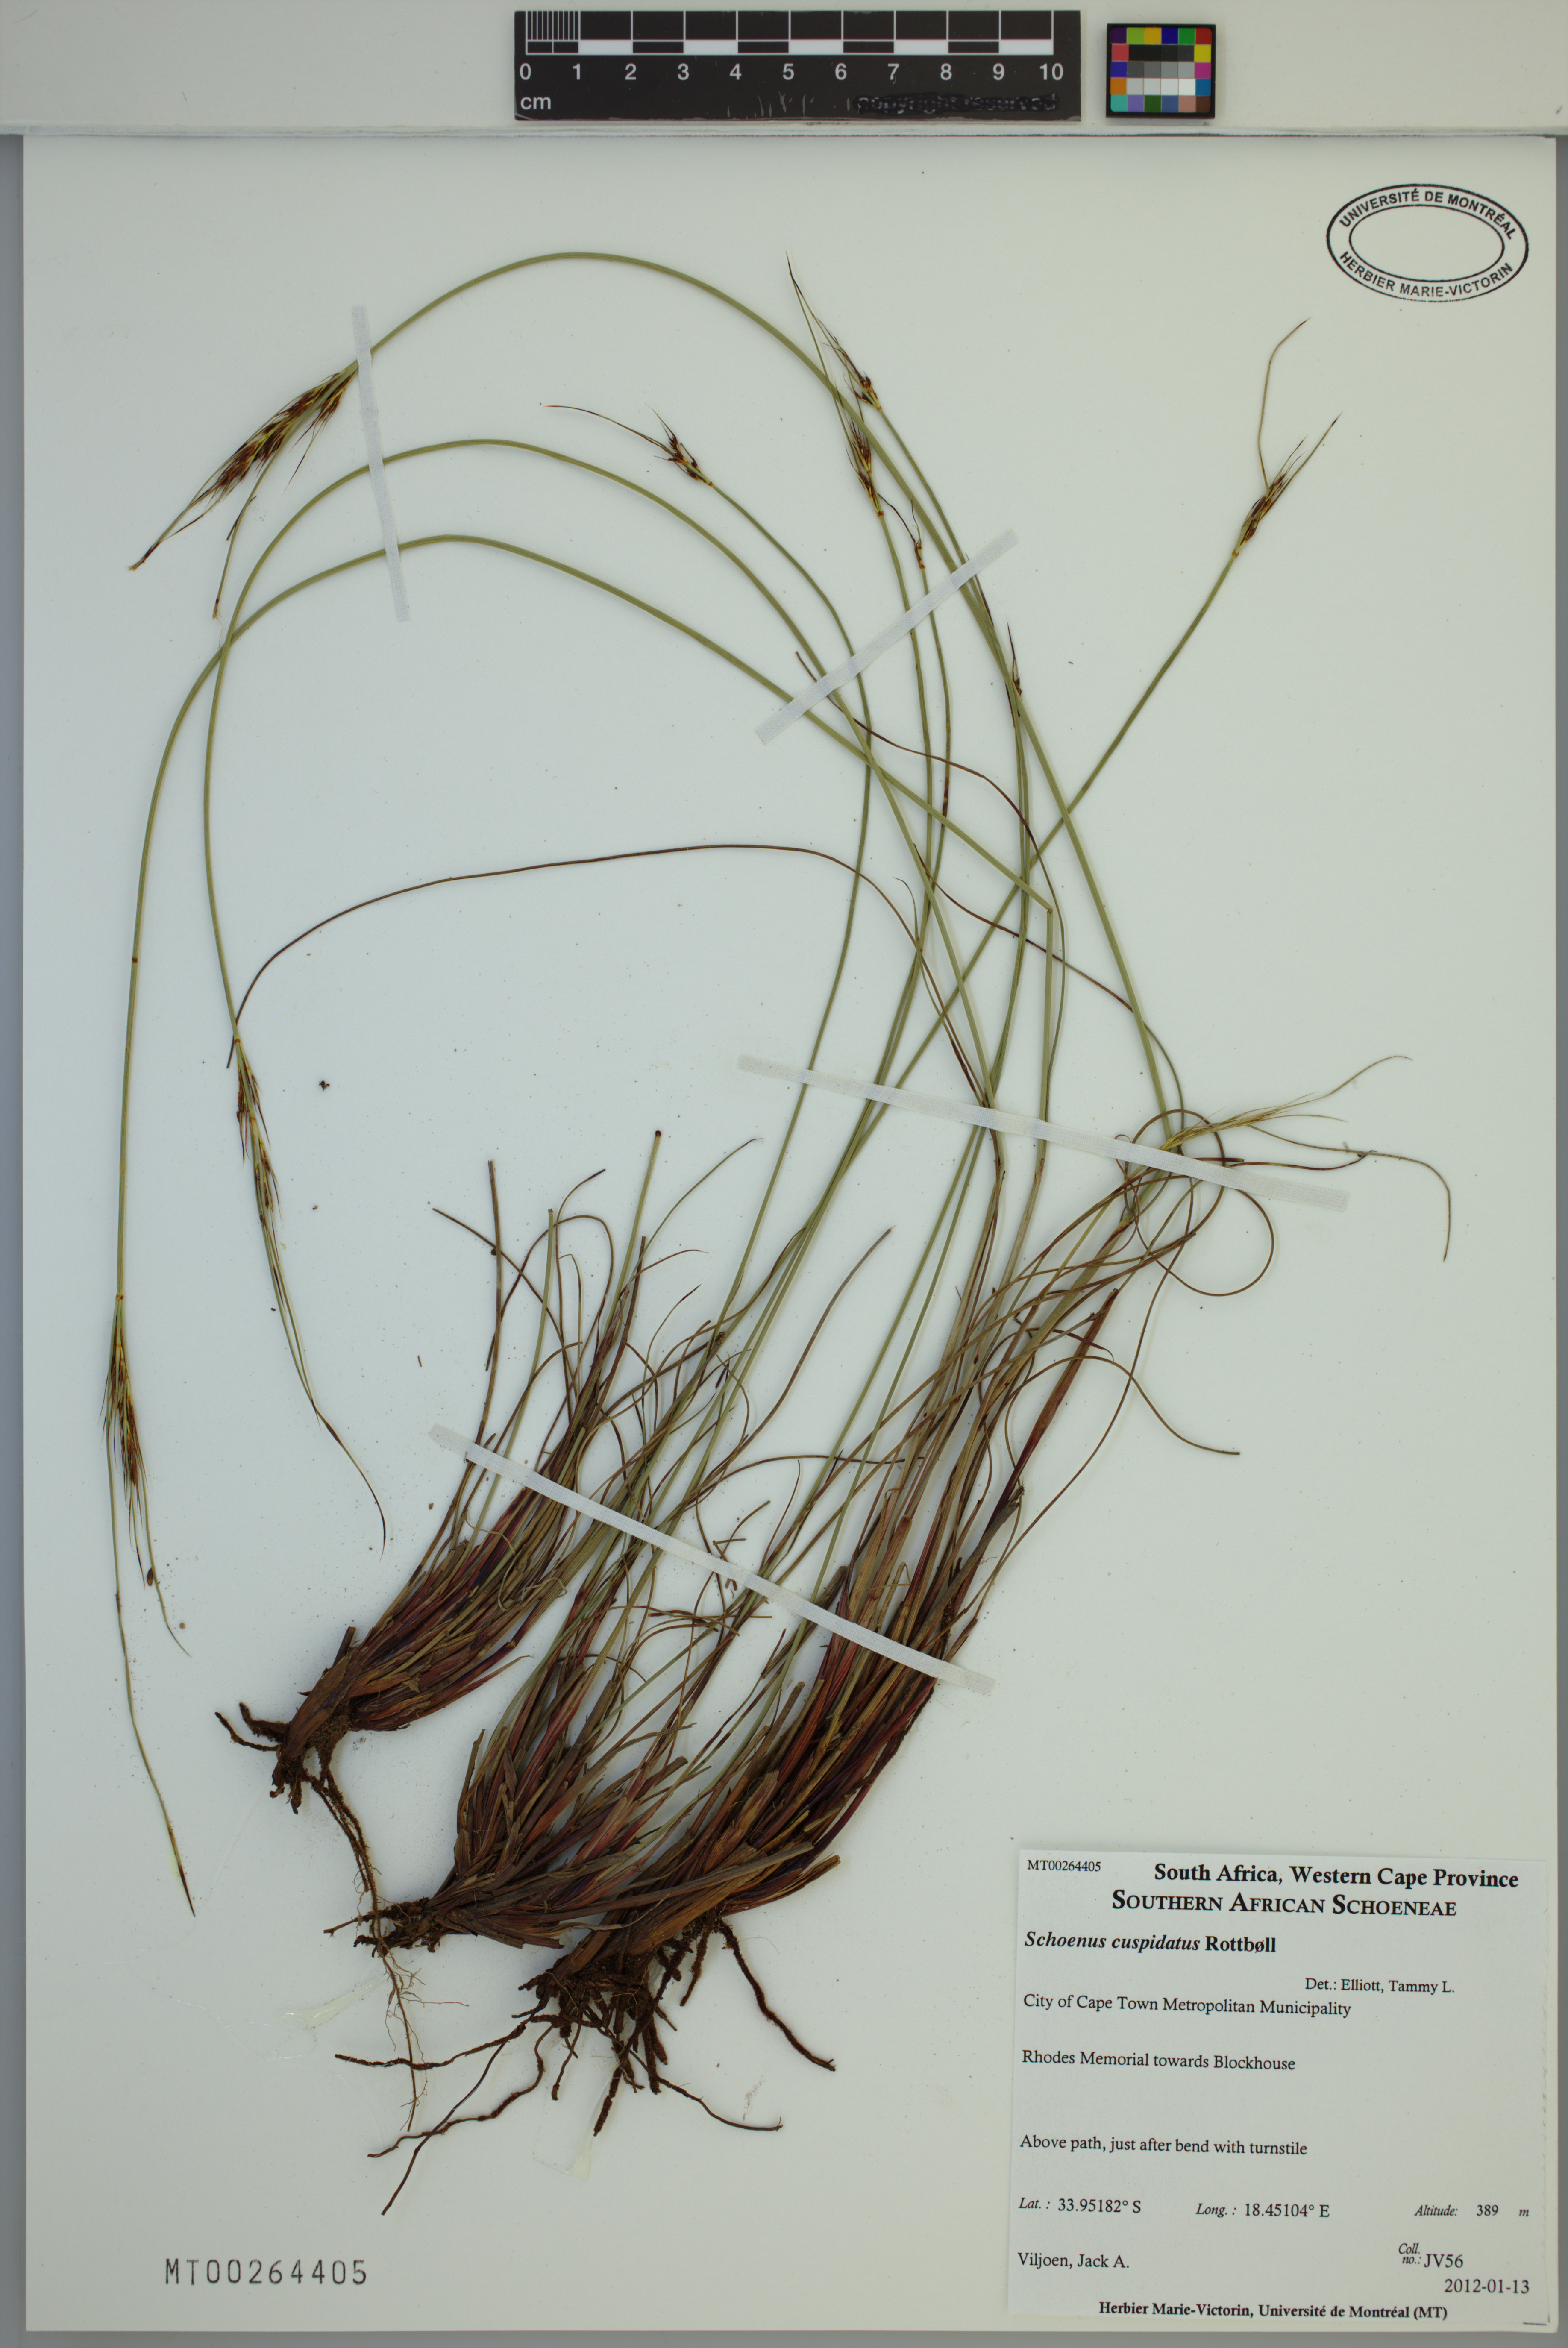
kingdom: Plantae
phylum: Tracheophyta
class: Liliopsida
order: Poales
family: Cyperaceae
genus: Schoenus
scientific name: Schoenus cuspidatus
